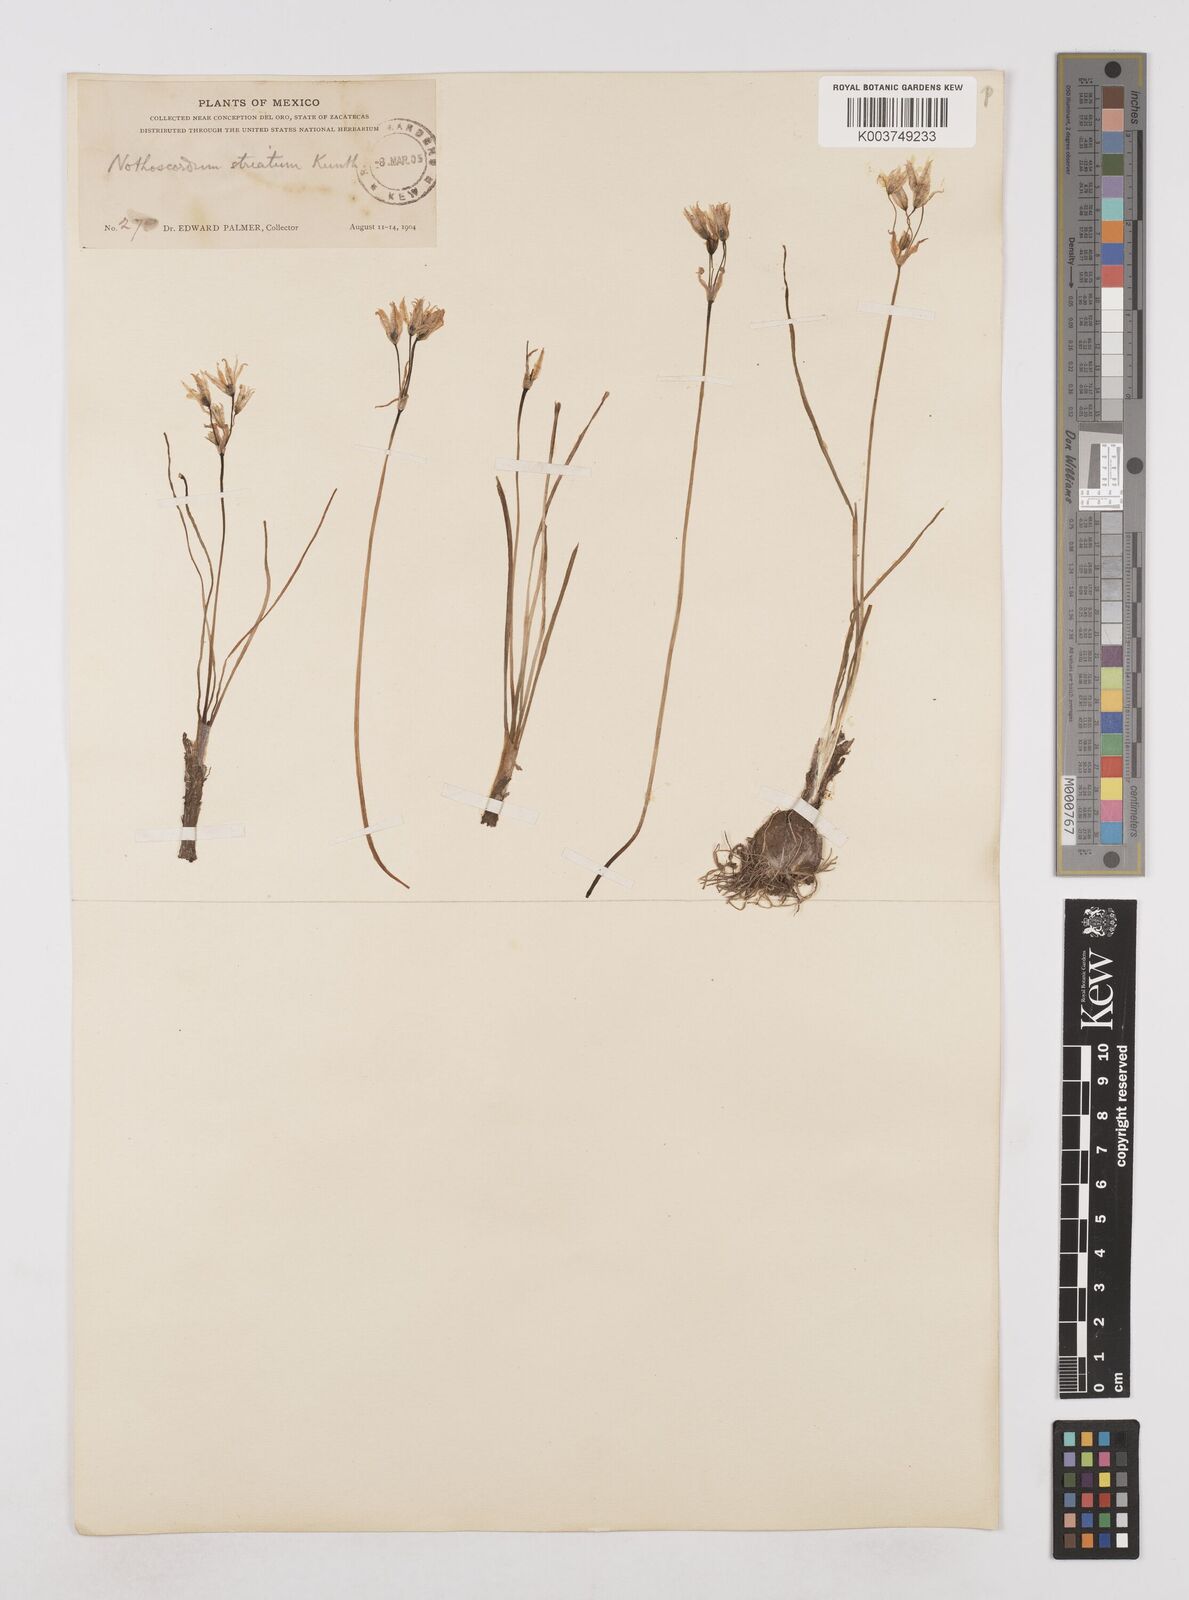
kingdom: Plantae
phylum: Tracheophyta
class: Liliopsida
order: Asparagales
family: Amaryllidaceae
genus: Nothoscordum
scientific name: Nothoscordum bivalve
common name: Crow-poison
